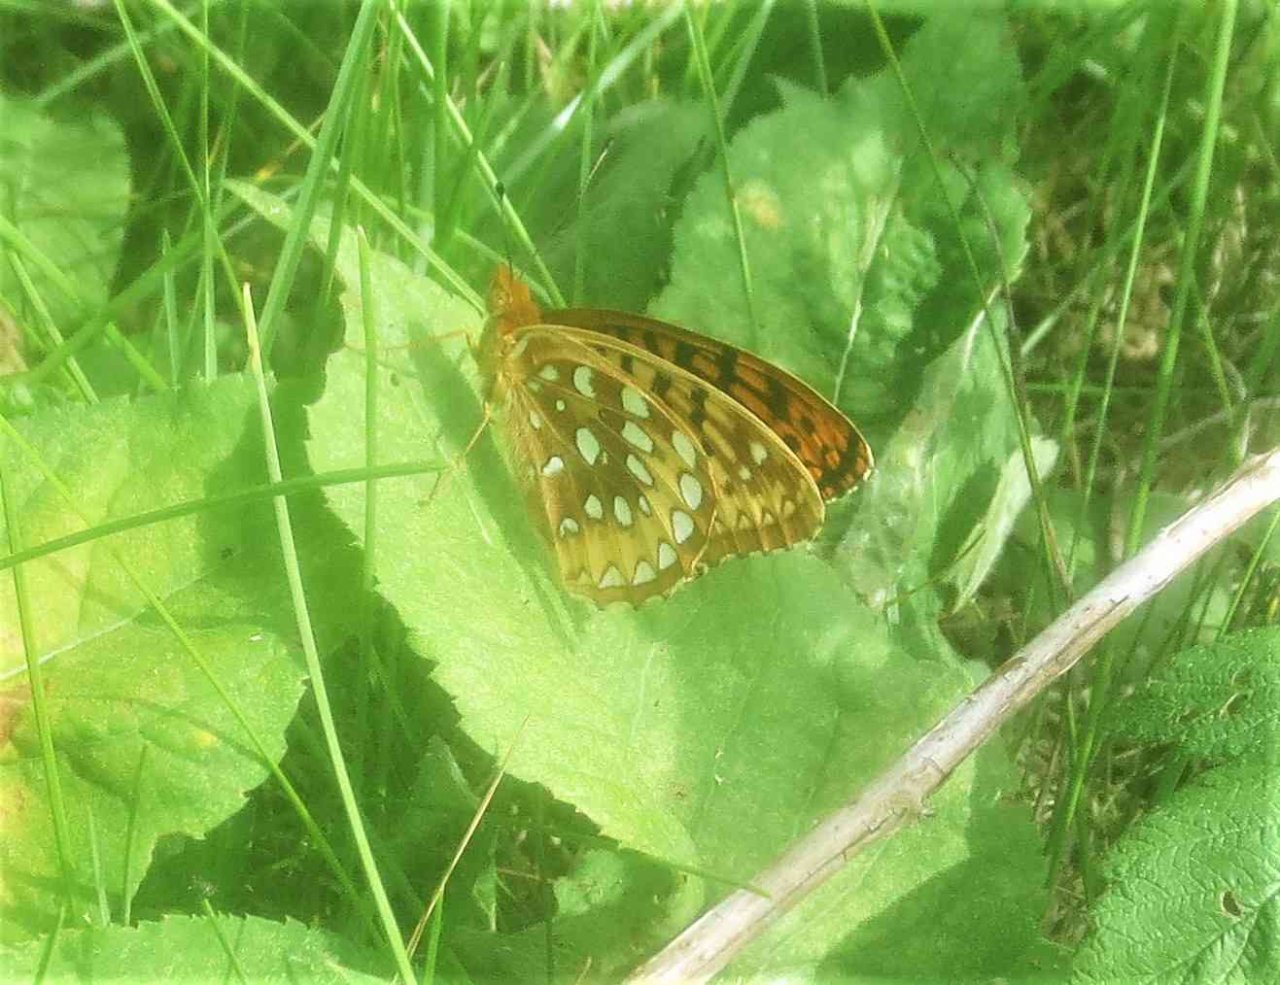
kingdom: Animalia
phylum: Arthropoda
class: Insecta
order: Lepidoptera
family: Nymphalidae
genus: Speyeria
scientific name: Speyeria cybele
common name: Great Spangled Fritillary
